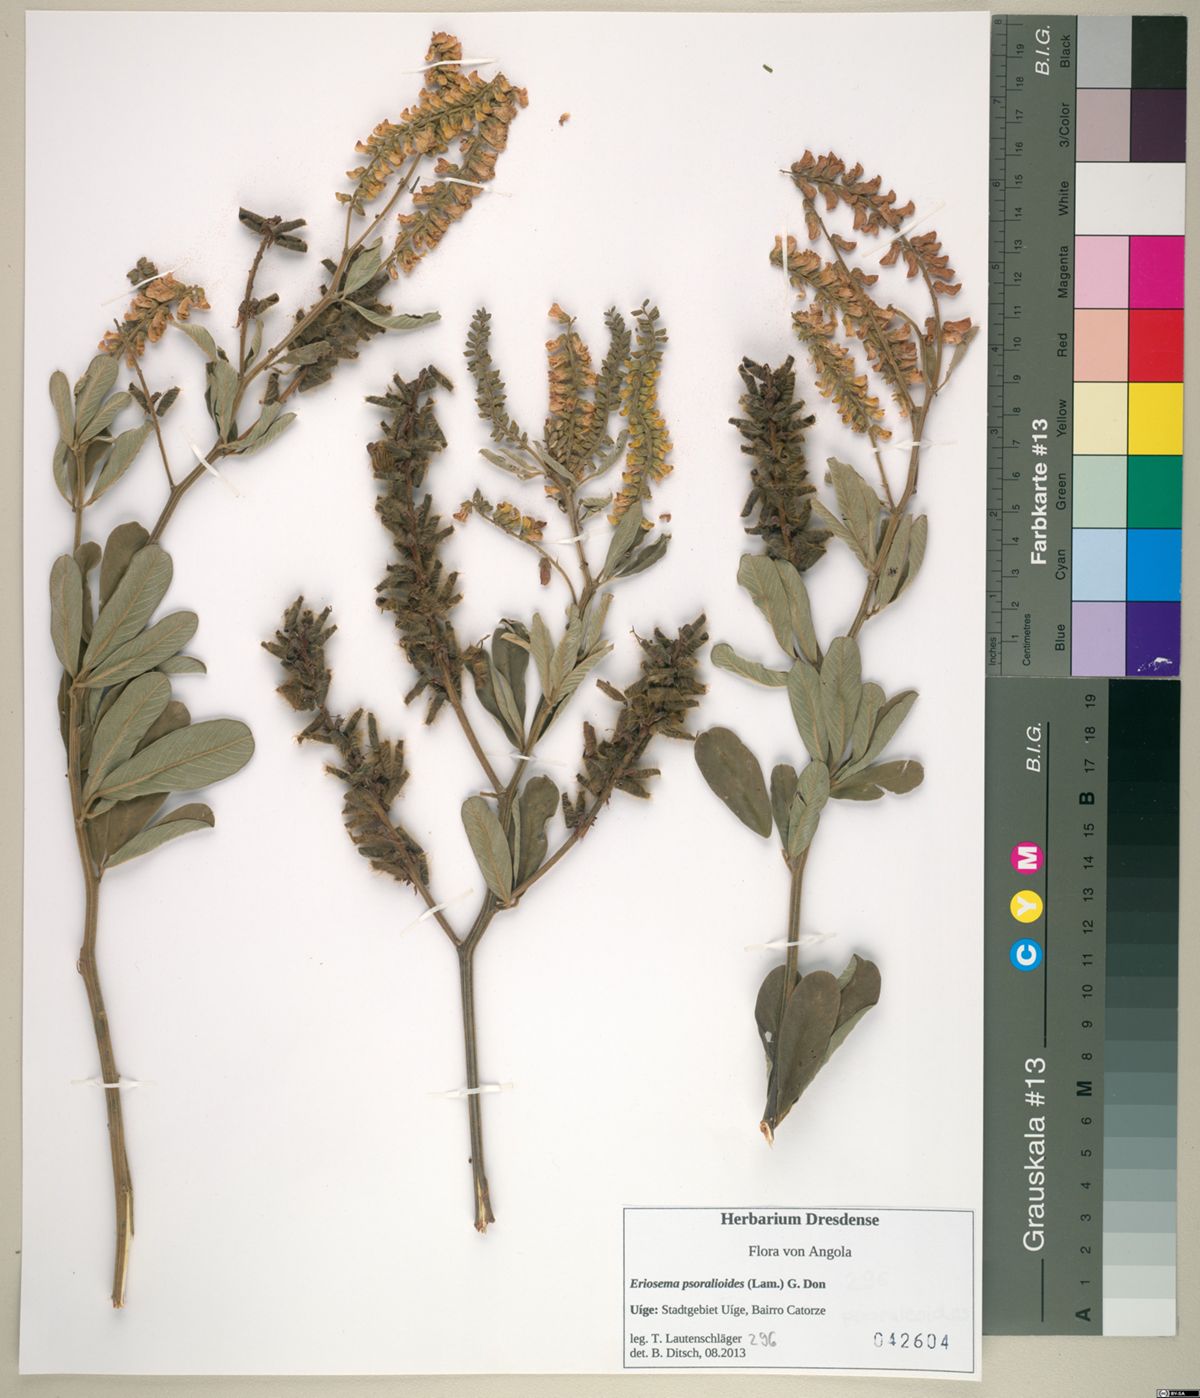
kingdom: Plantae
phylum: Tracheophyta
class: Magnoliopsida
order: Fabales
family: Fabaceae
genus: Eriosema
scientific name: Eriosema psoraleoides
